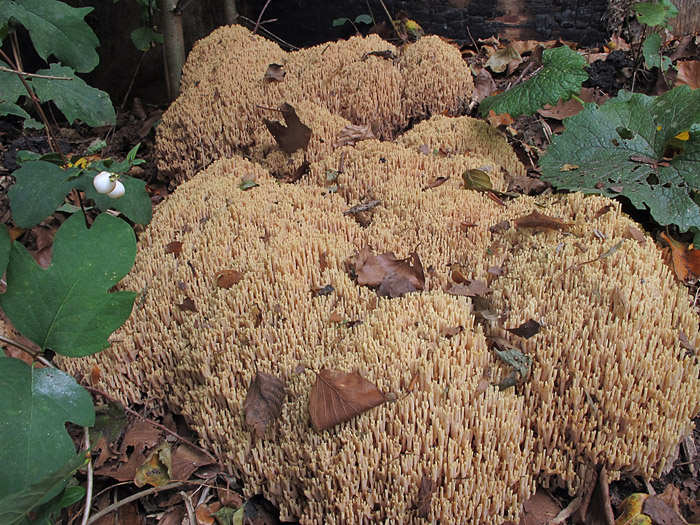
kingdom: Fungi
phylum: Basidiomycota
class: Agaricomycetes
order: Gomphales
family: Gomphaceae
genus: Ramaria
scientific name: Ramaria stricta
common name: rank koralsvamp
